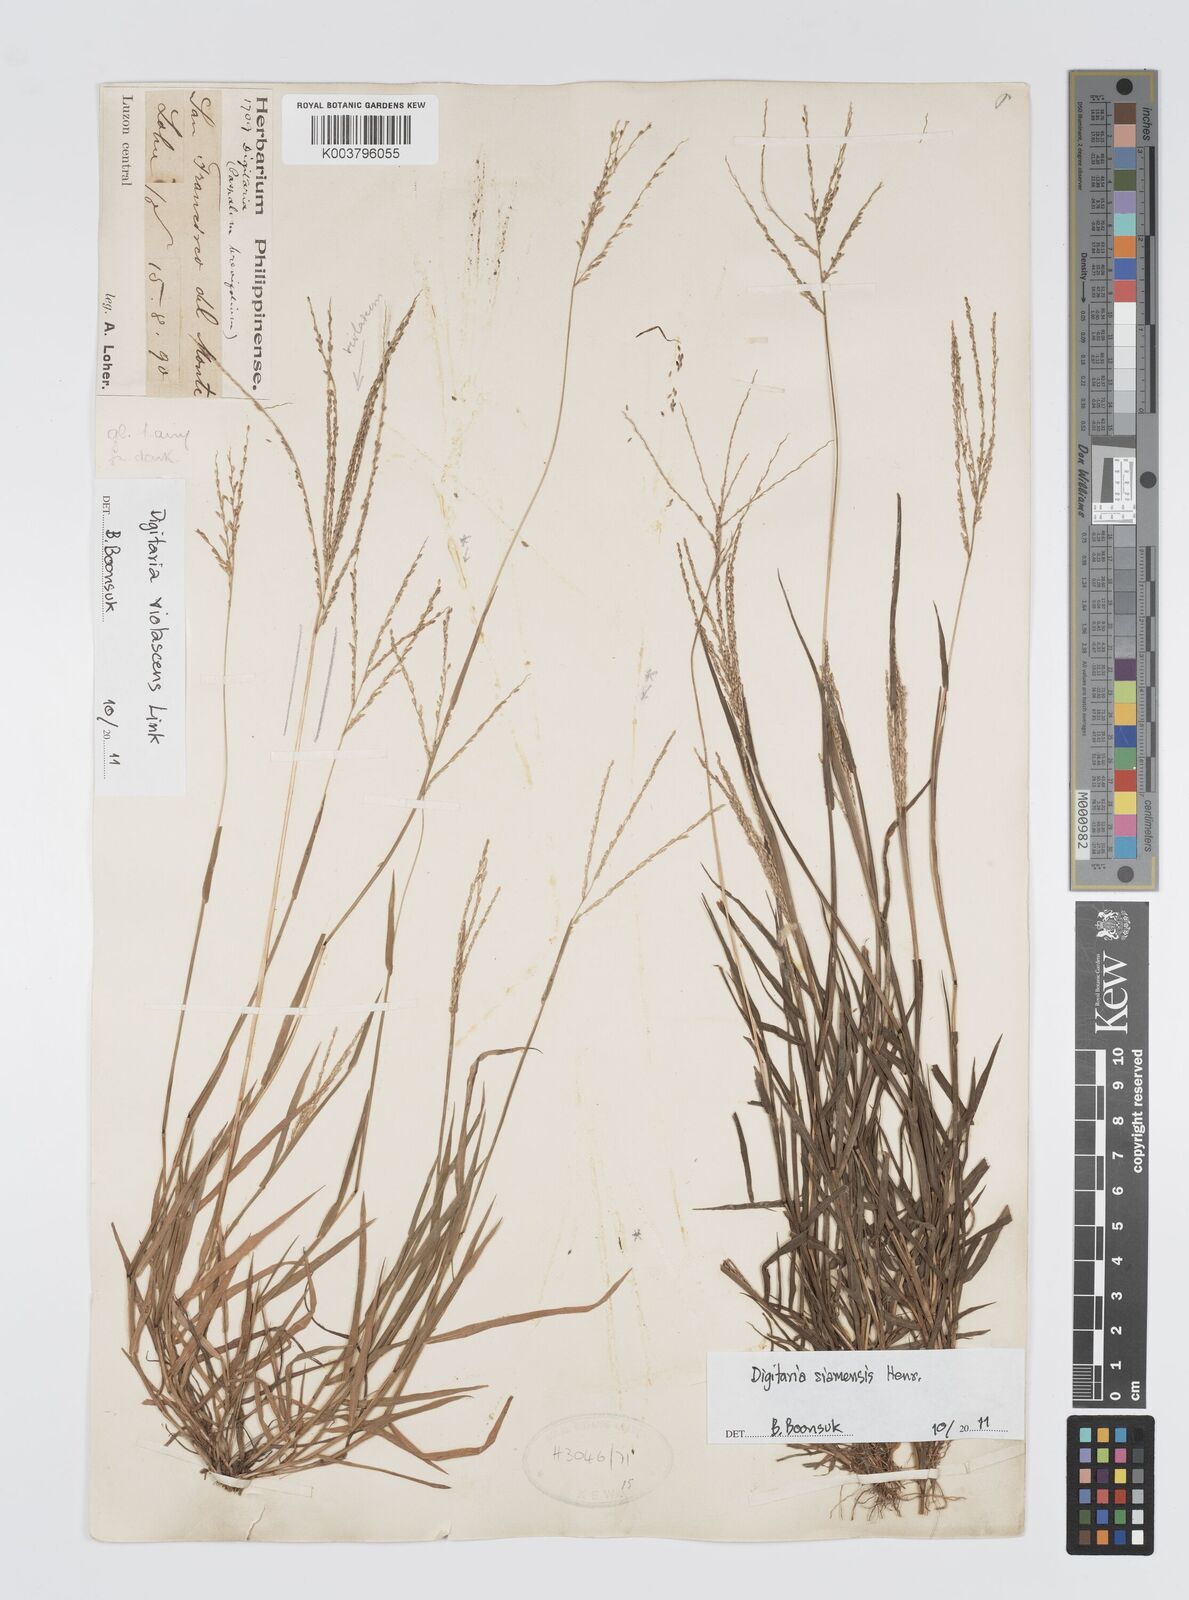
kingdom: Plantae
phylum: Tracheophyta
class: Liliopsida
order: Poales
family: Poaceae
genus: Digitaria
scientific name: Digitaria violascens
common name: Violet crabgrass
